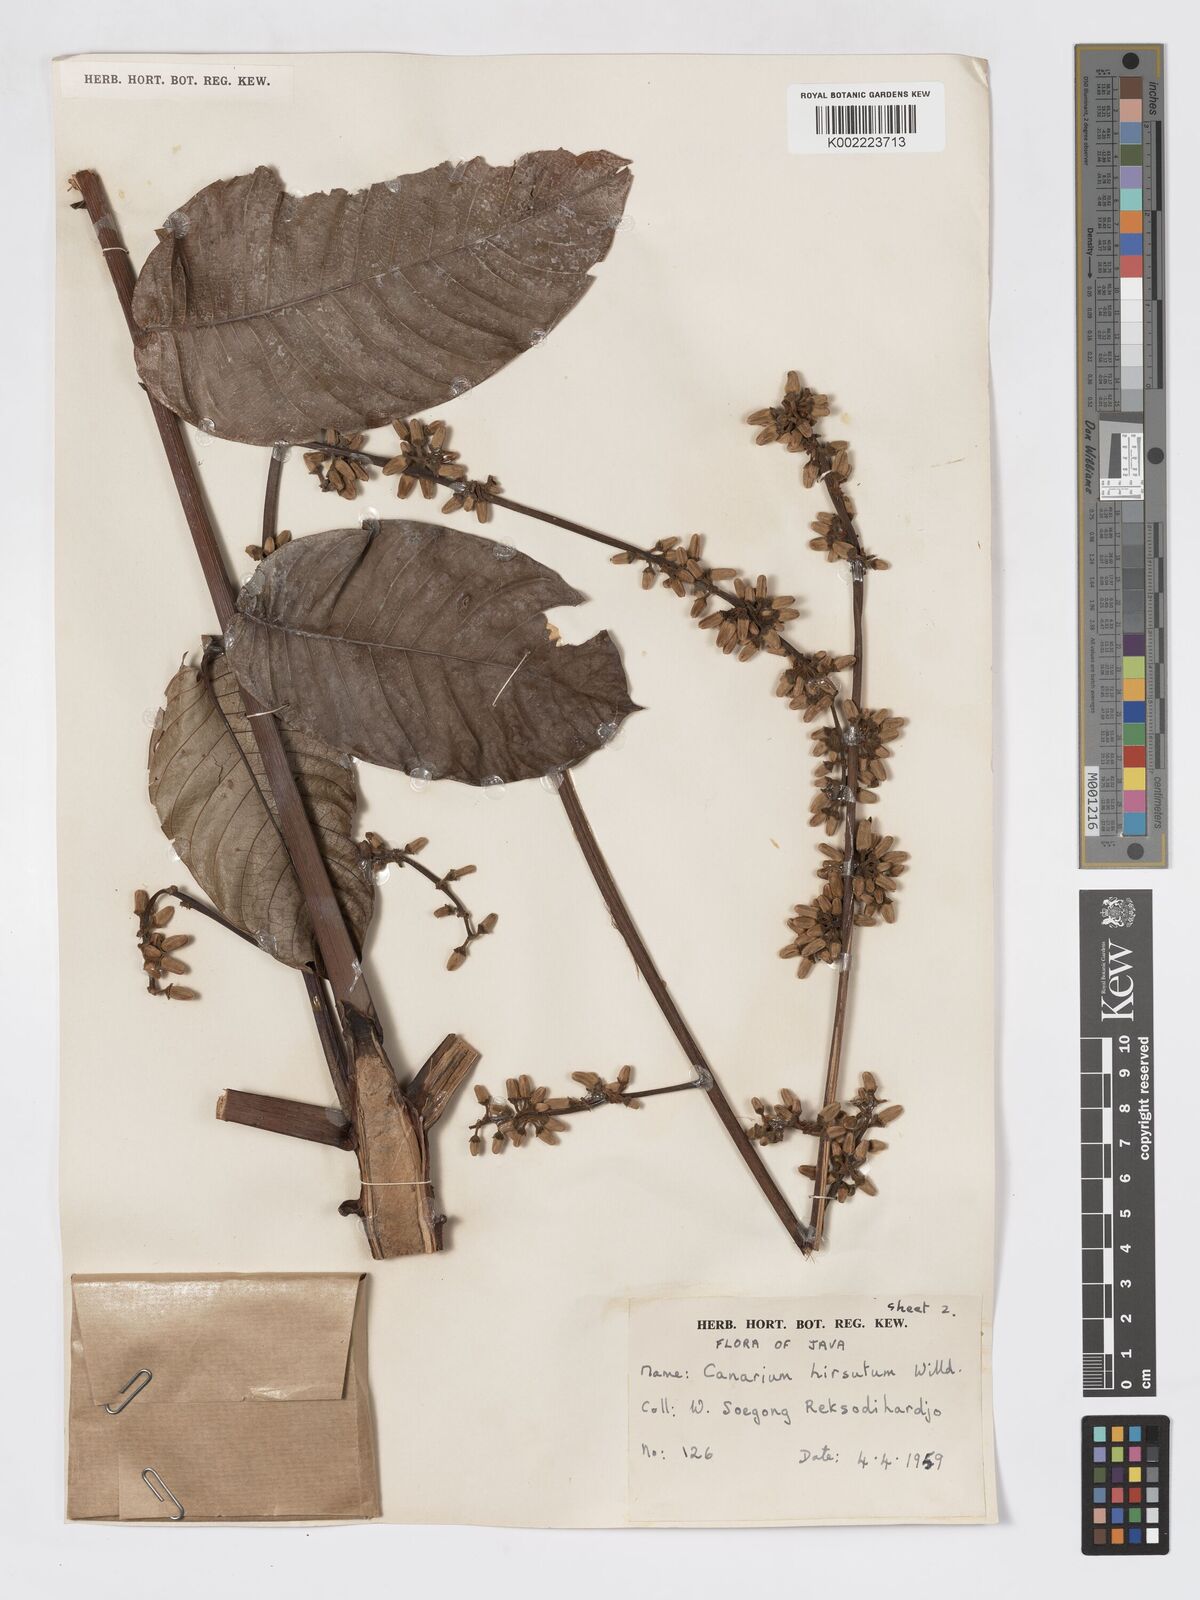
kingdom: Plantae
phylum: Tracheophyta
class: Magnoliopsida
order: Sapindales
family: Burseraceae
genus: Canarium
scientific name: Canarium hirsutum
